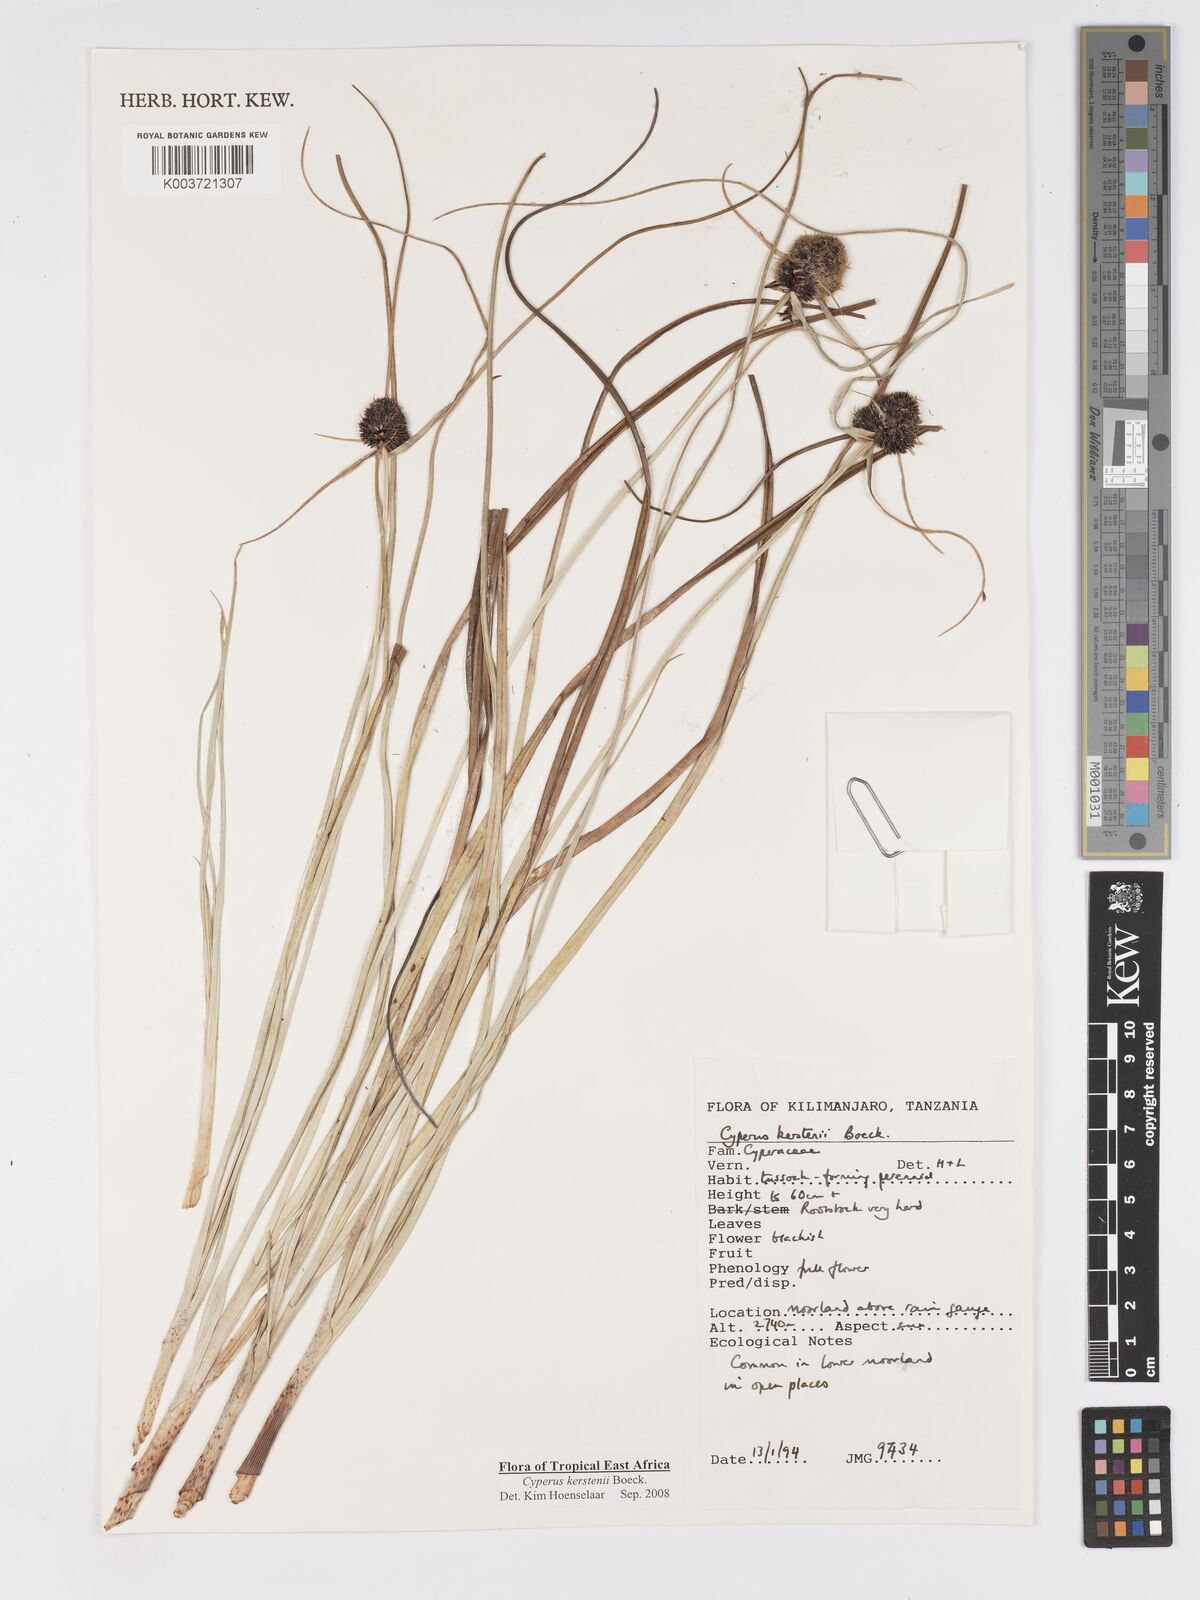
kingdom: Plantae
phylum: Tracheophyta
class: Liliopsida
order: Poales
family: Cyperaceae
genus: Cyperus
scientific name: Cyperus kerstenii
